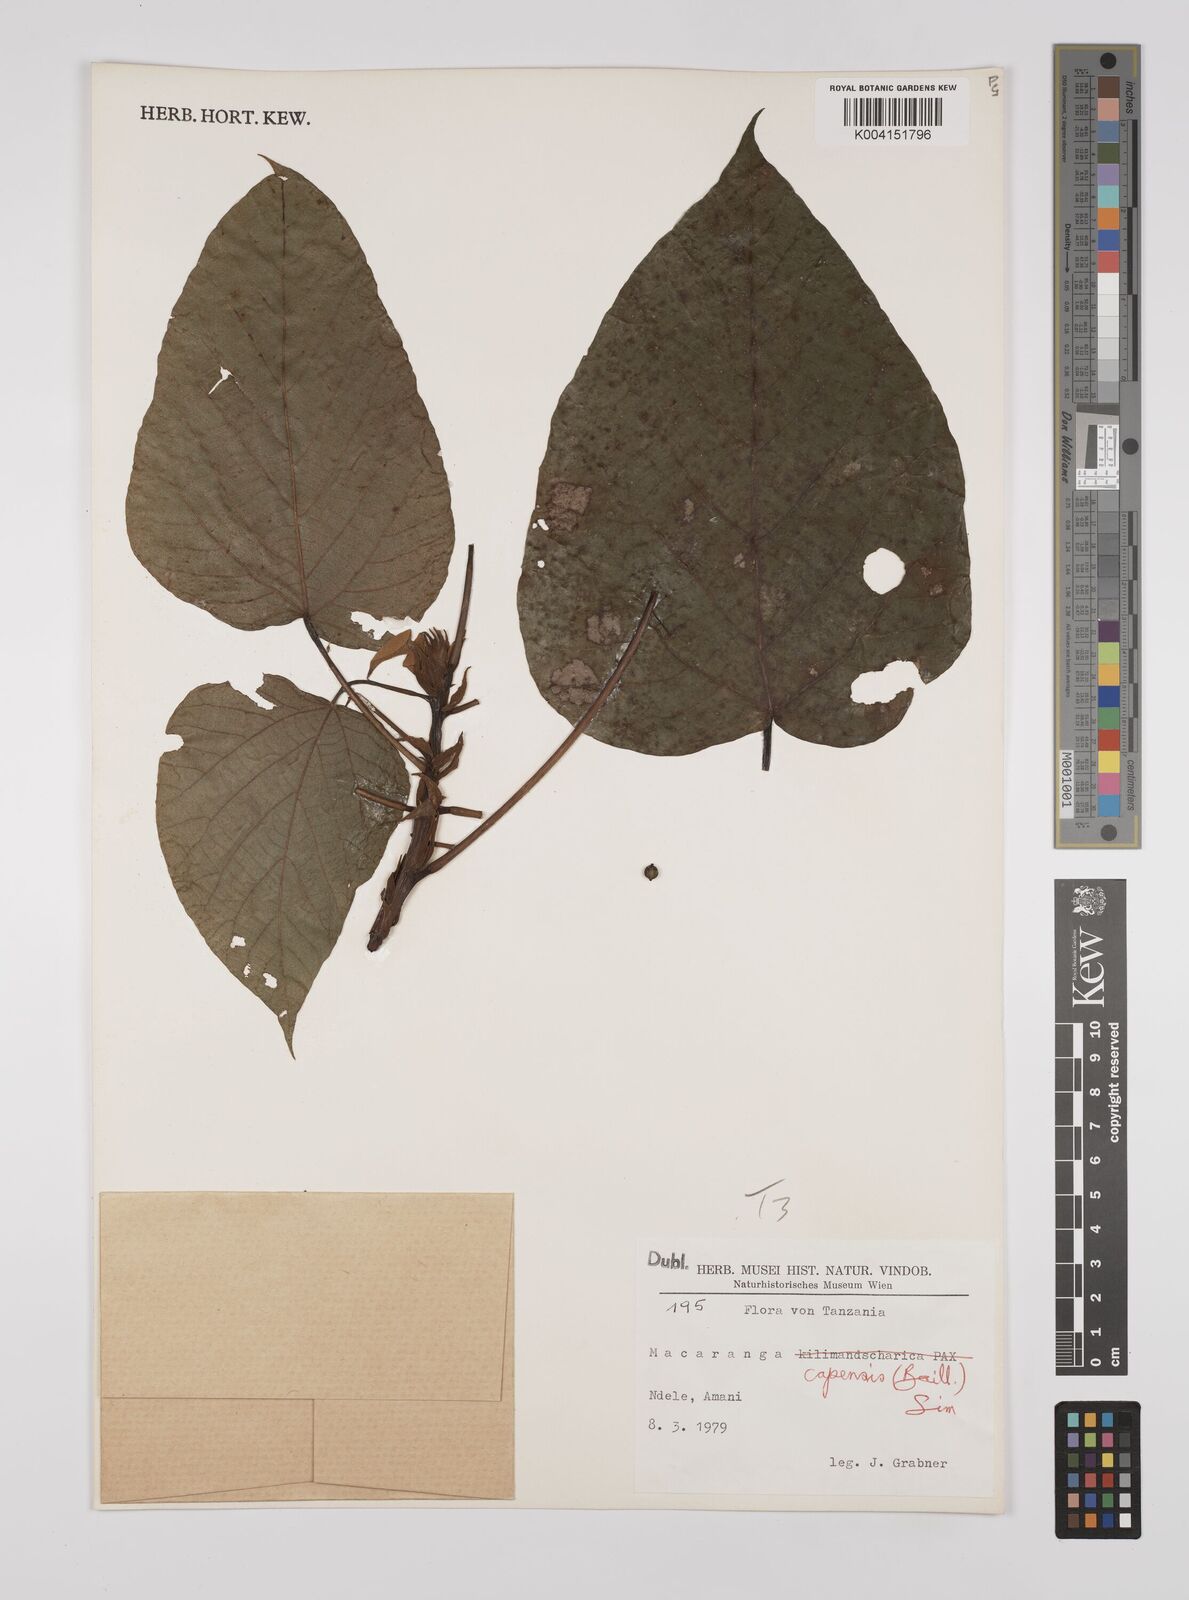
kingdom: Plantae
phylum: Tracheophyta
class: Magnoliopsida
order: Malpighiales
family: Euphorbiaceae
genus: Macaranga
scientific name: Macaranga capensis
